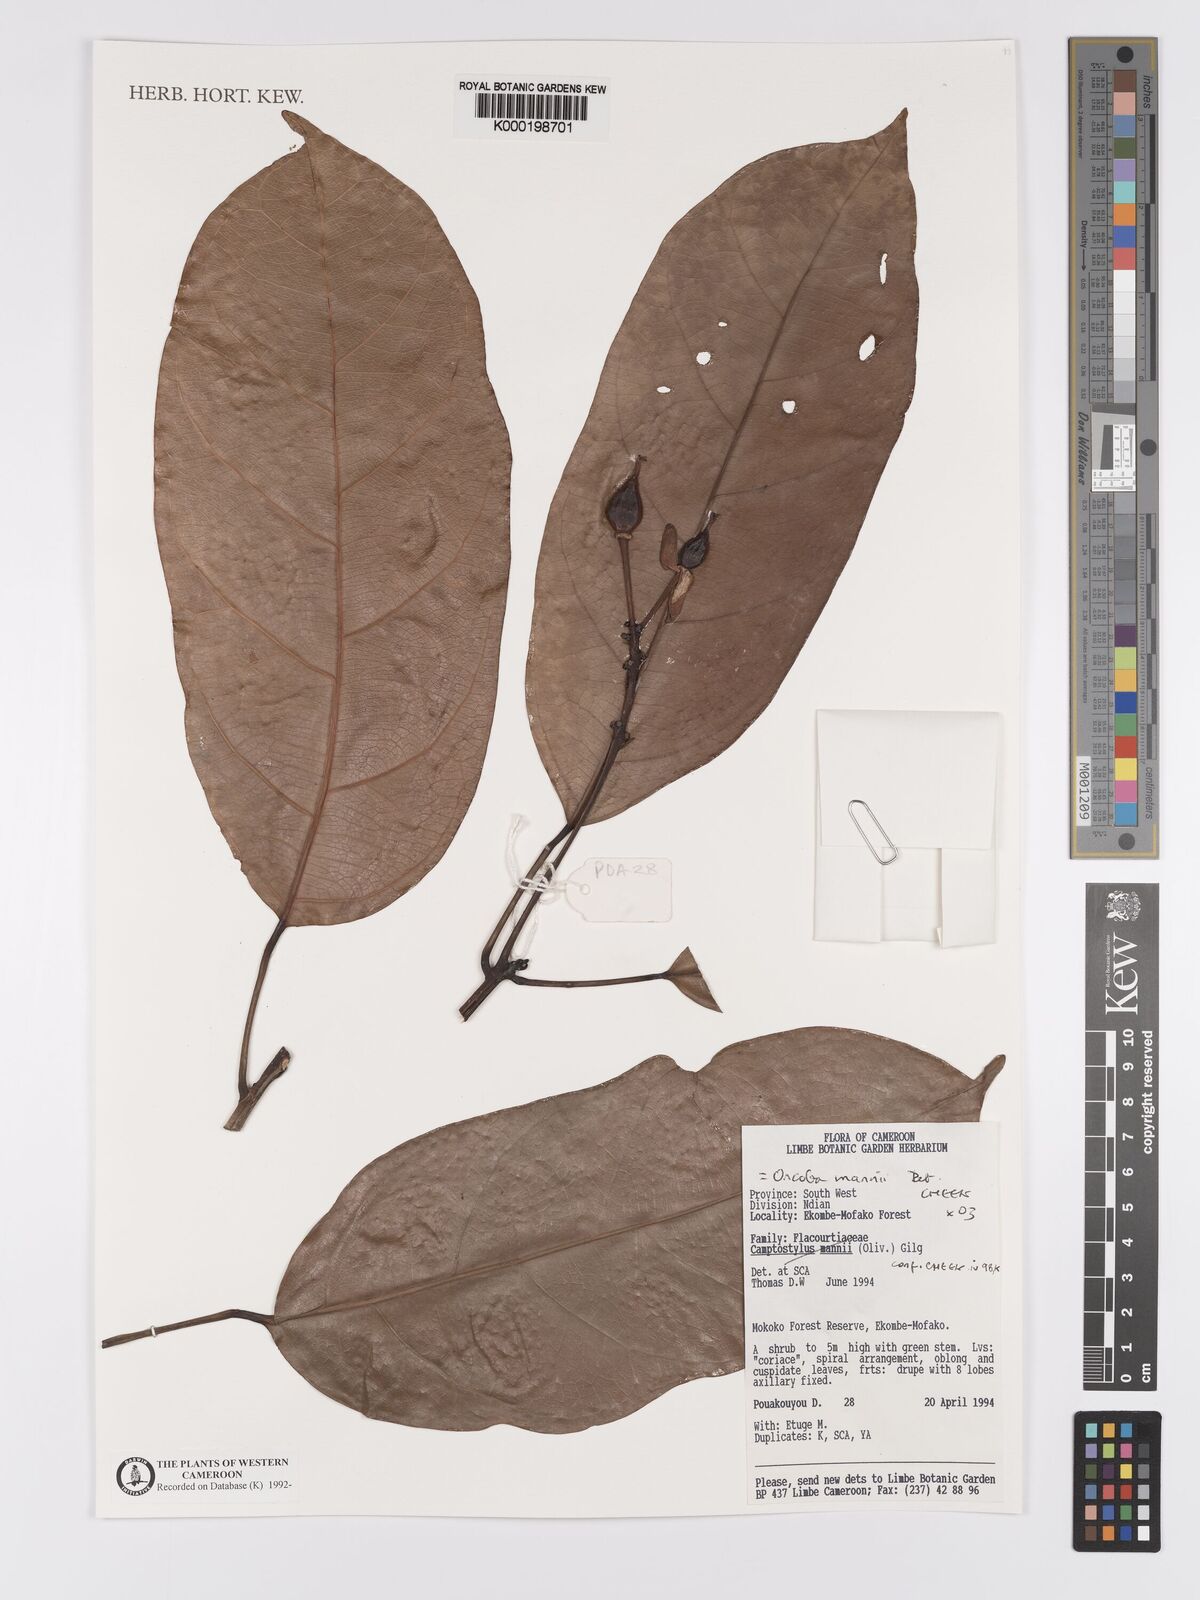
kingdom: Plantae
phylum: Tracheophyta
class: Magnoliopsida
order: Malpighiales
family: Achariaceae
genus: Camptostylus
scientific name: Camptostylus mannii
